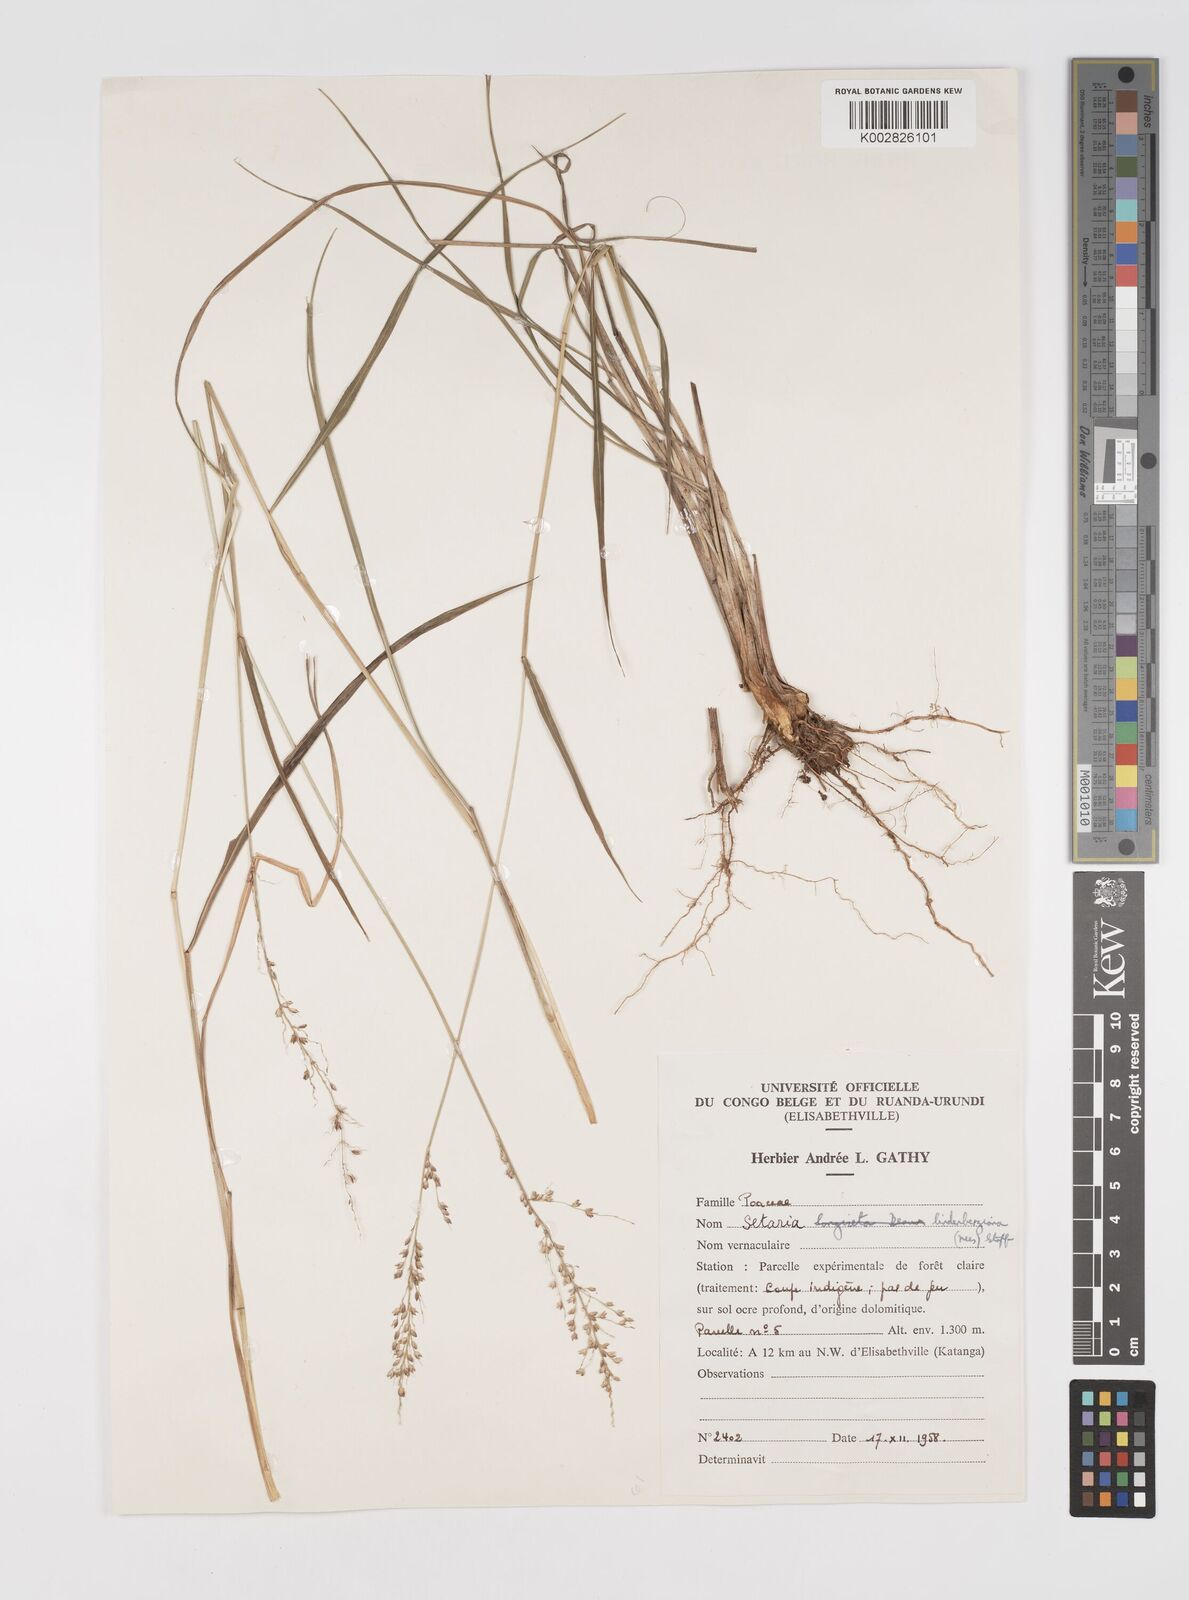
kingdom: Plantae
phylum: Tracheophyta
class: Liliopsida
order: Poales
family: Poaceae
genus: Setaria
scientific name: Setaria lindenbergiana
